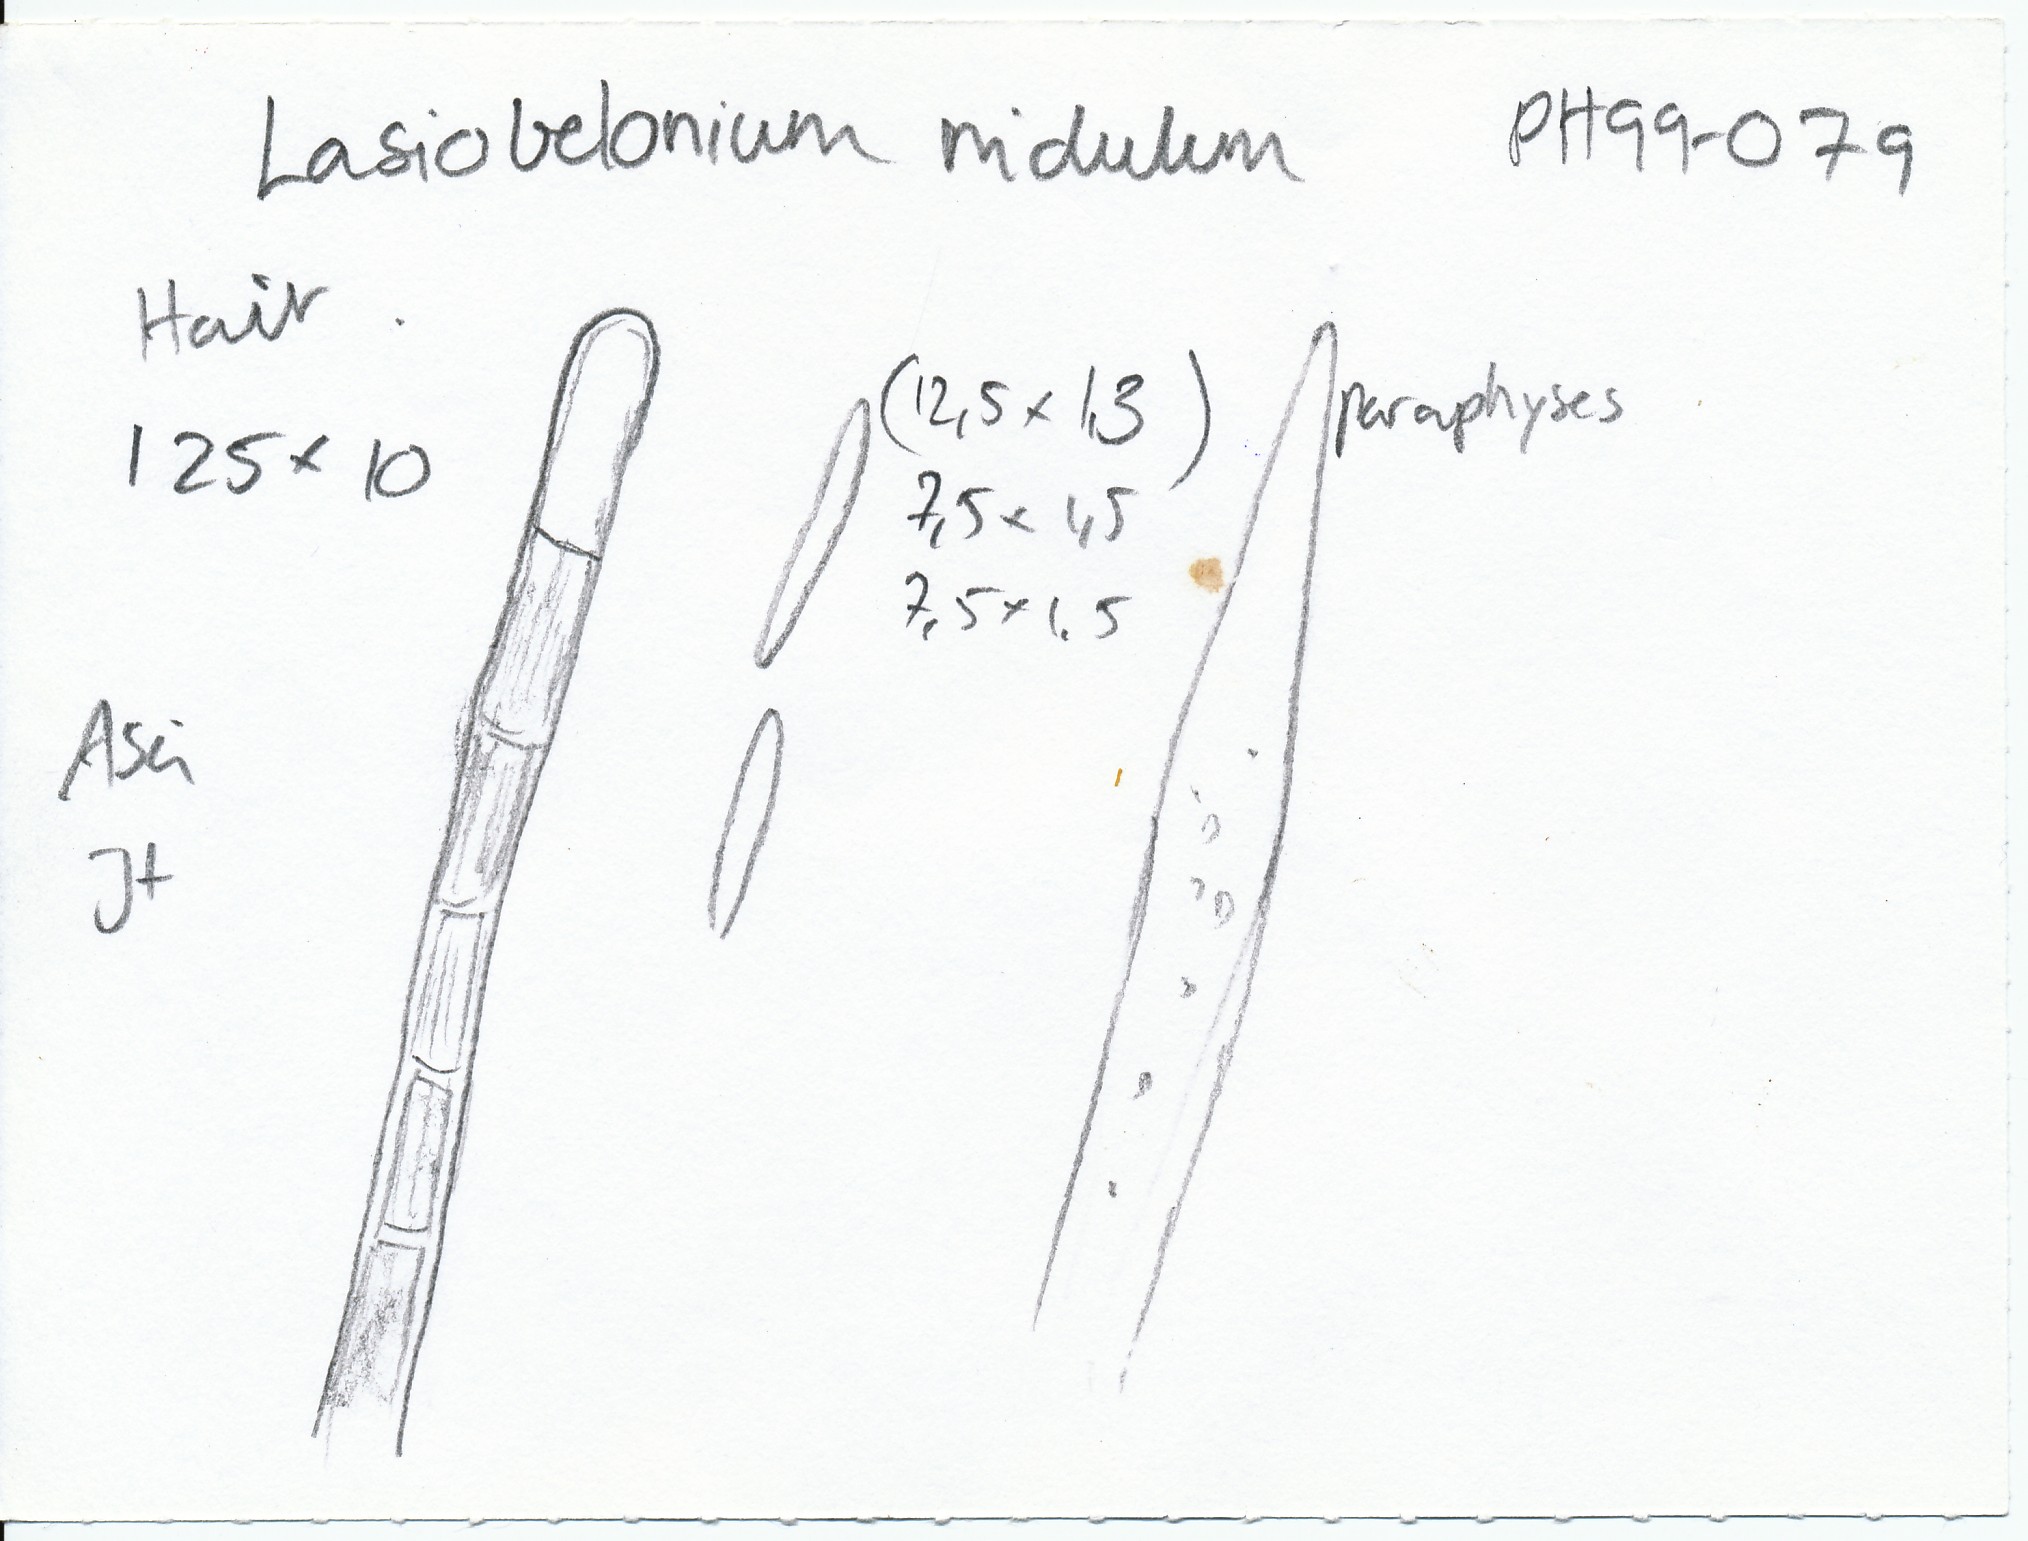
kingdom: Fungi
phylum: Ascomycota
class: Leotiomycetes
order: Helotiales
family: Solenopeziaceae
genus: Lasiobelonium
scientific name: Lasiobelonium nidulus
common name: rede-frynseskive
